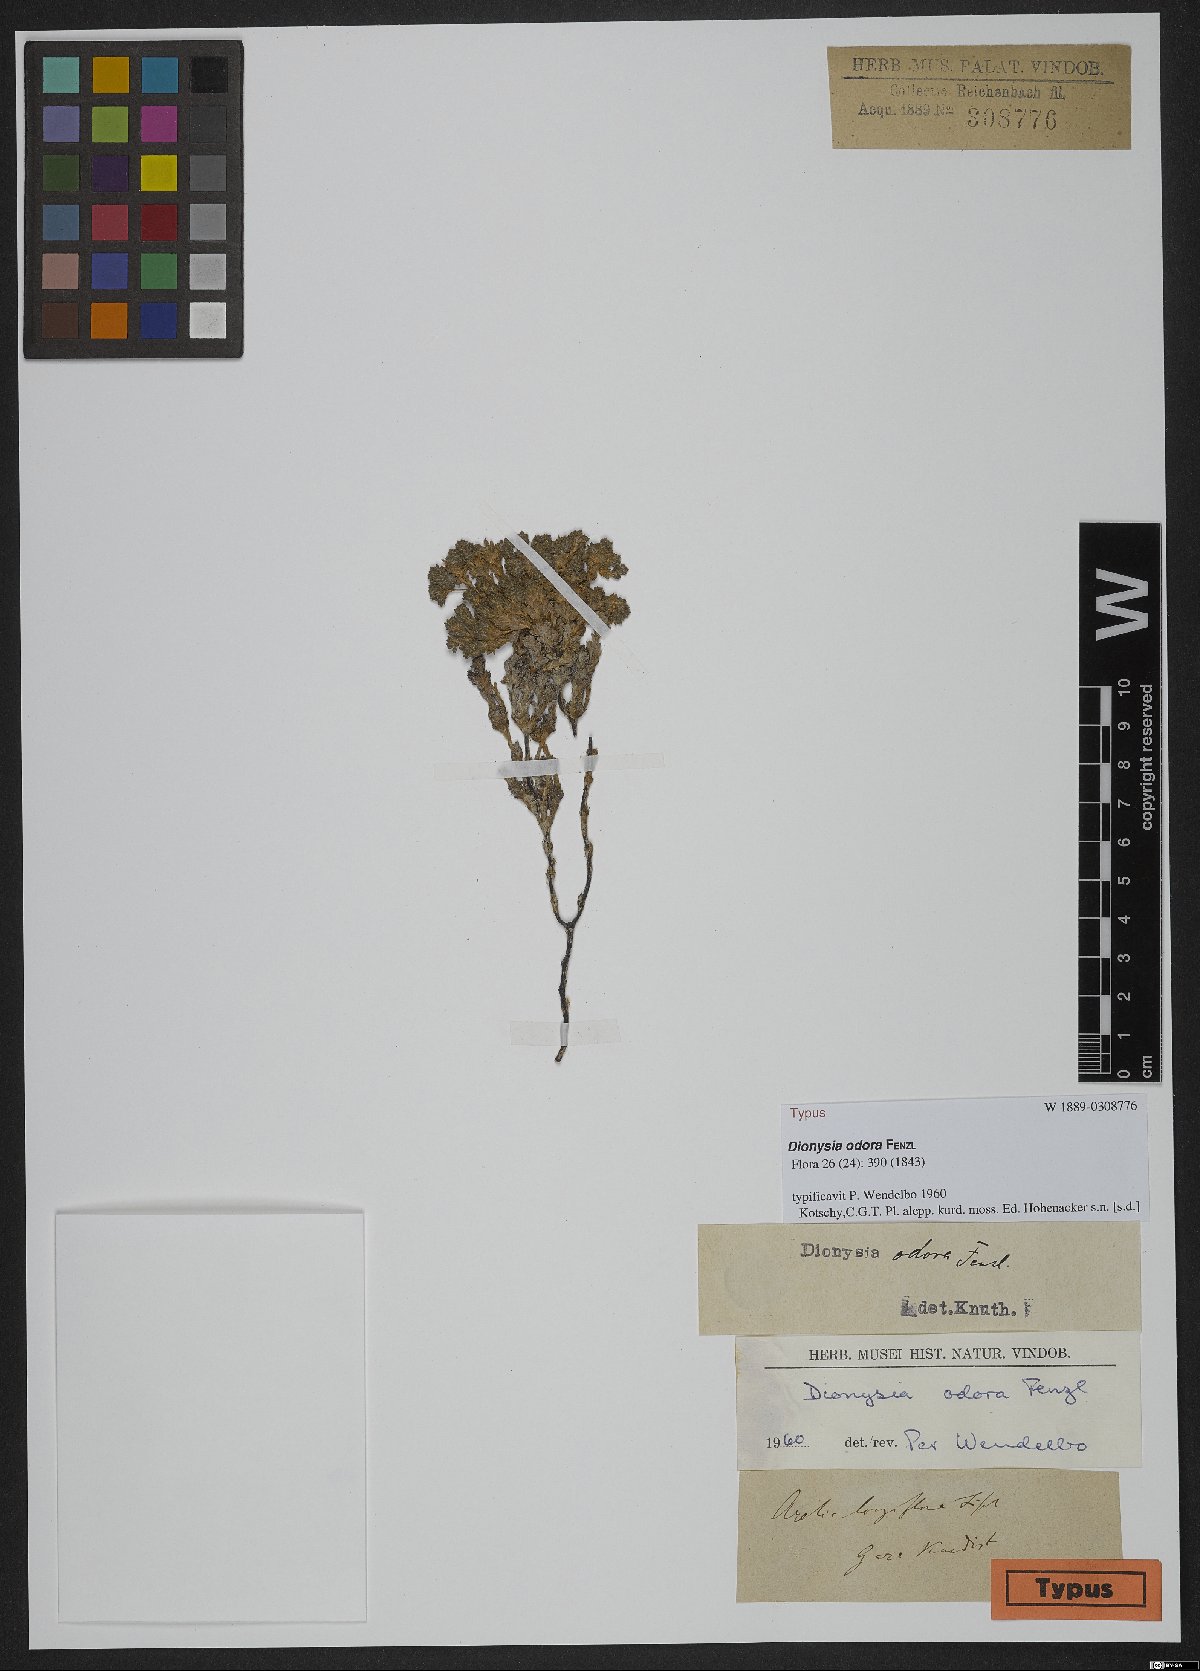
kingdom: Plantae
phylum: Tracheophyta
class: Magnoliopsida
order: Ericales
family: Primulaceae
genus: Dionysia
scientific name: Dionysia odora
